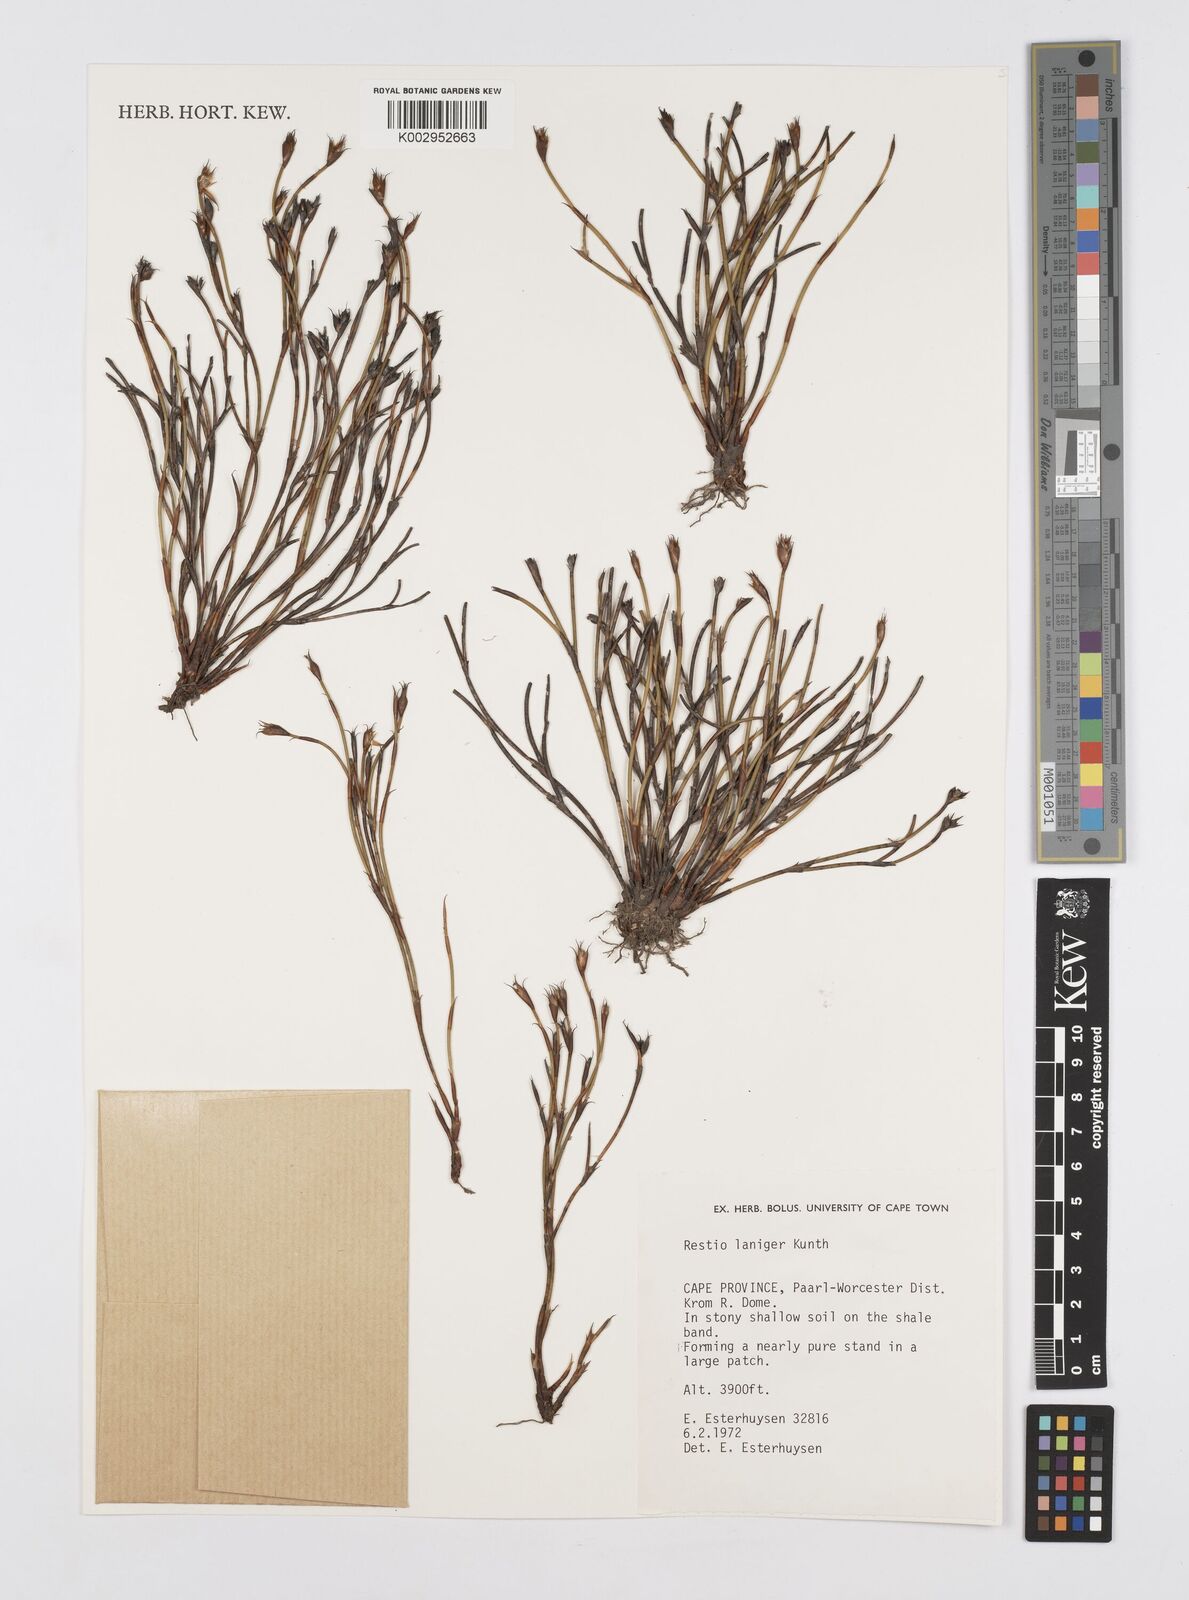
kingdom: Plantae
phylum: Tracheophyta
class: Liliopsida
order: Poales
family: Restionaceae
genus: Restio
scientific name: Restio laniger
